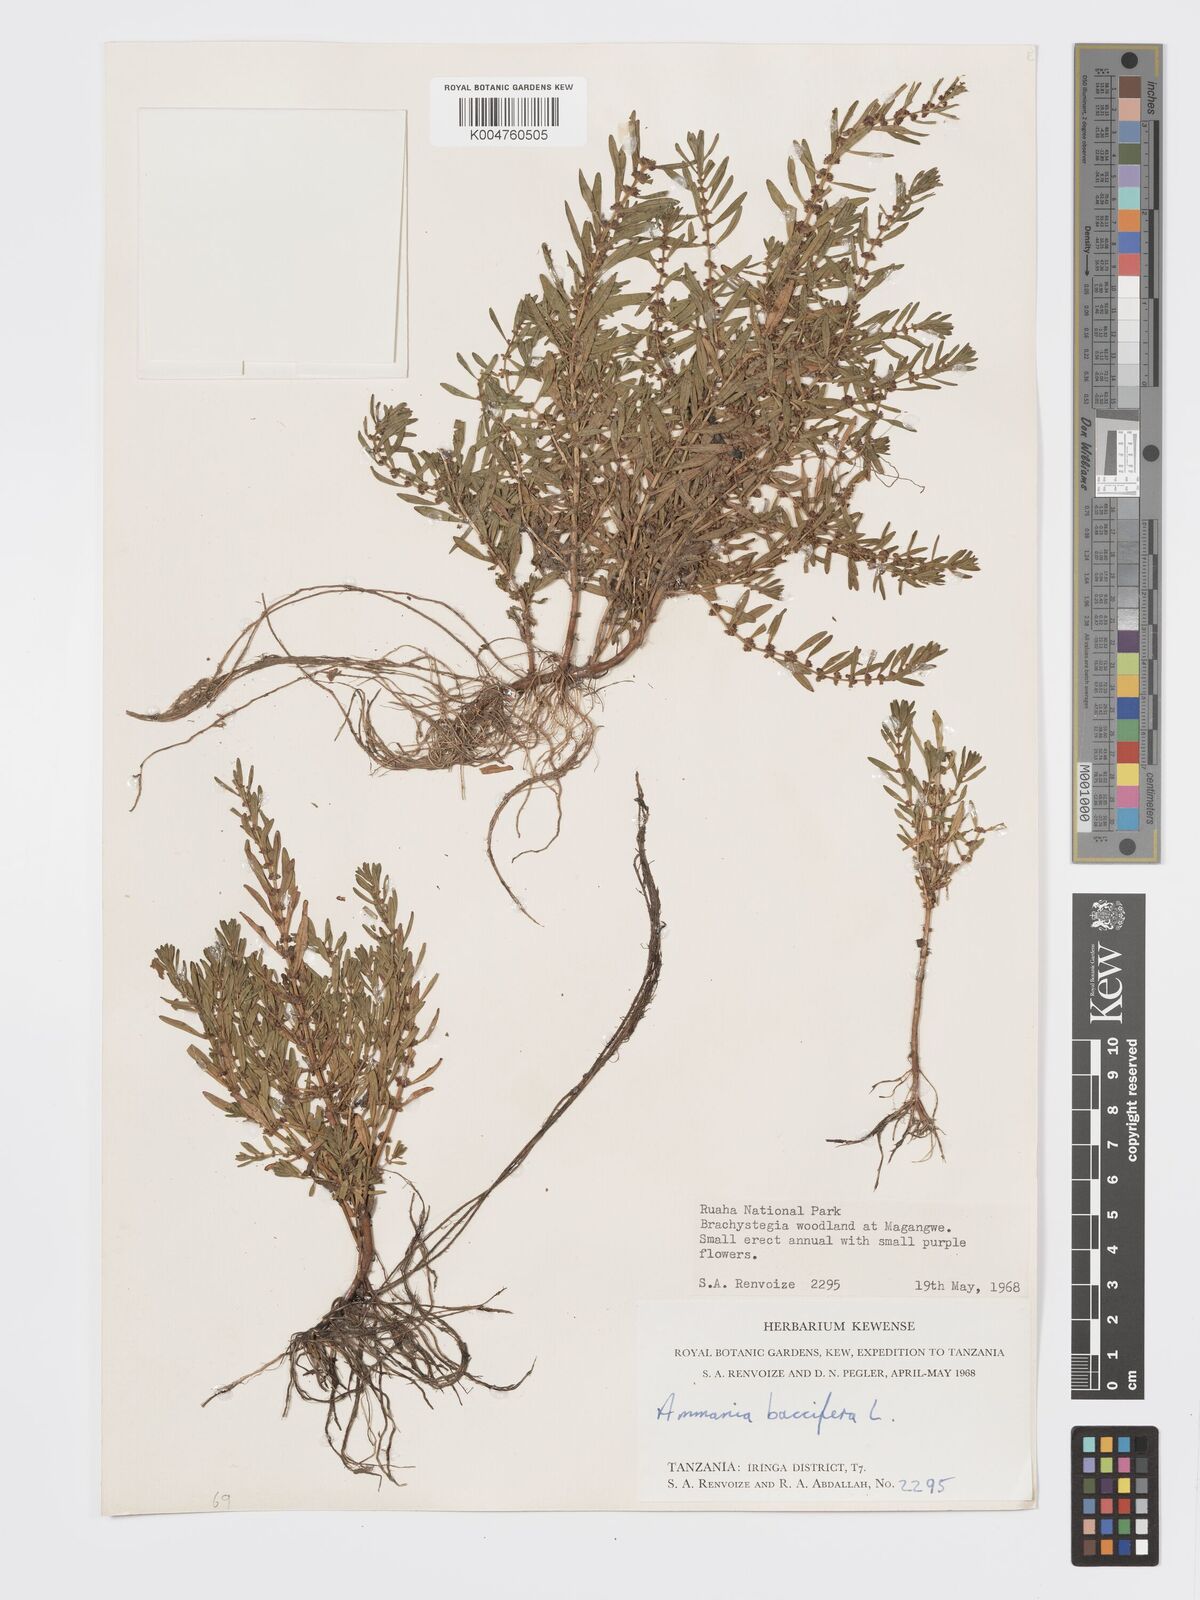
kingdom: Plantae
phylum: Tracheophyta
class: Magnoliopsida
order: Myrtales
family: Lythraceae
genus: Ammannia
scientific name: Ammannia
